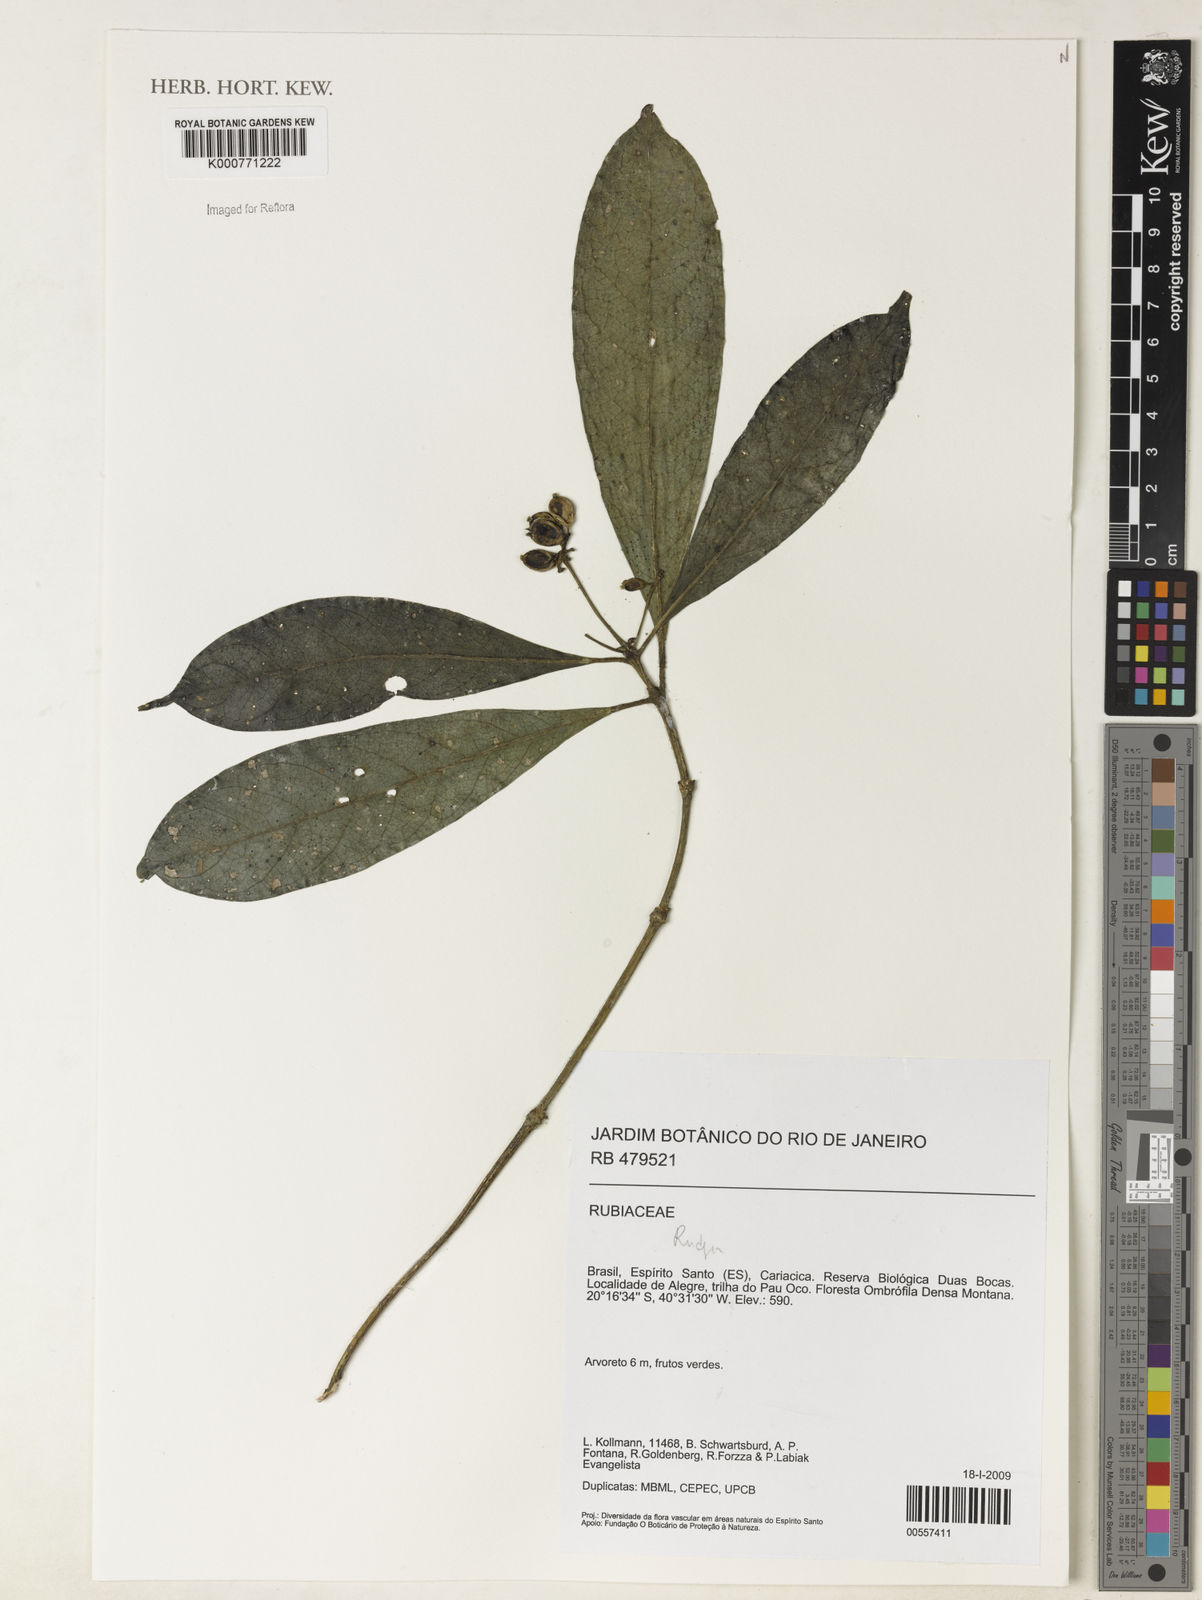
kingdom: Plantae
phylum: Tracheophyta
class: Magnoliopsida
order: Gentianales
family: Rubiaceae
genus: Rudgea
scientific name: Rudgea
